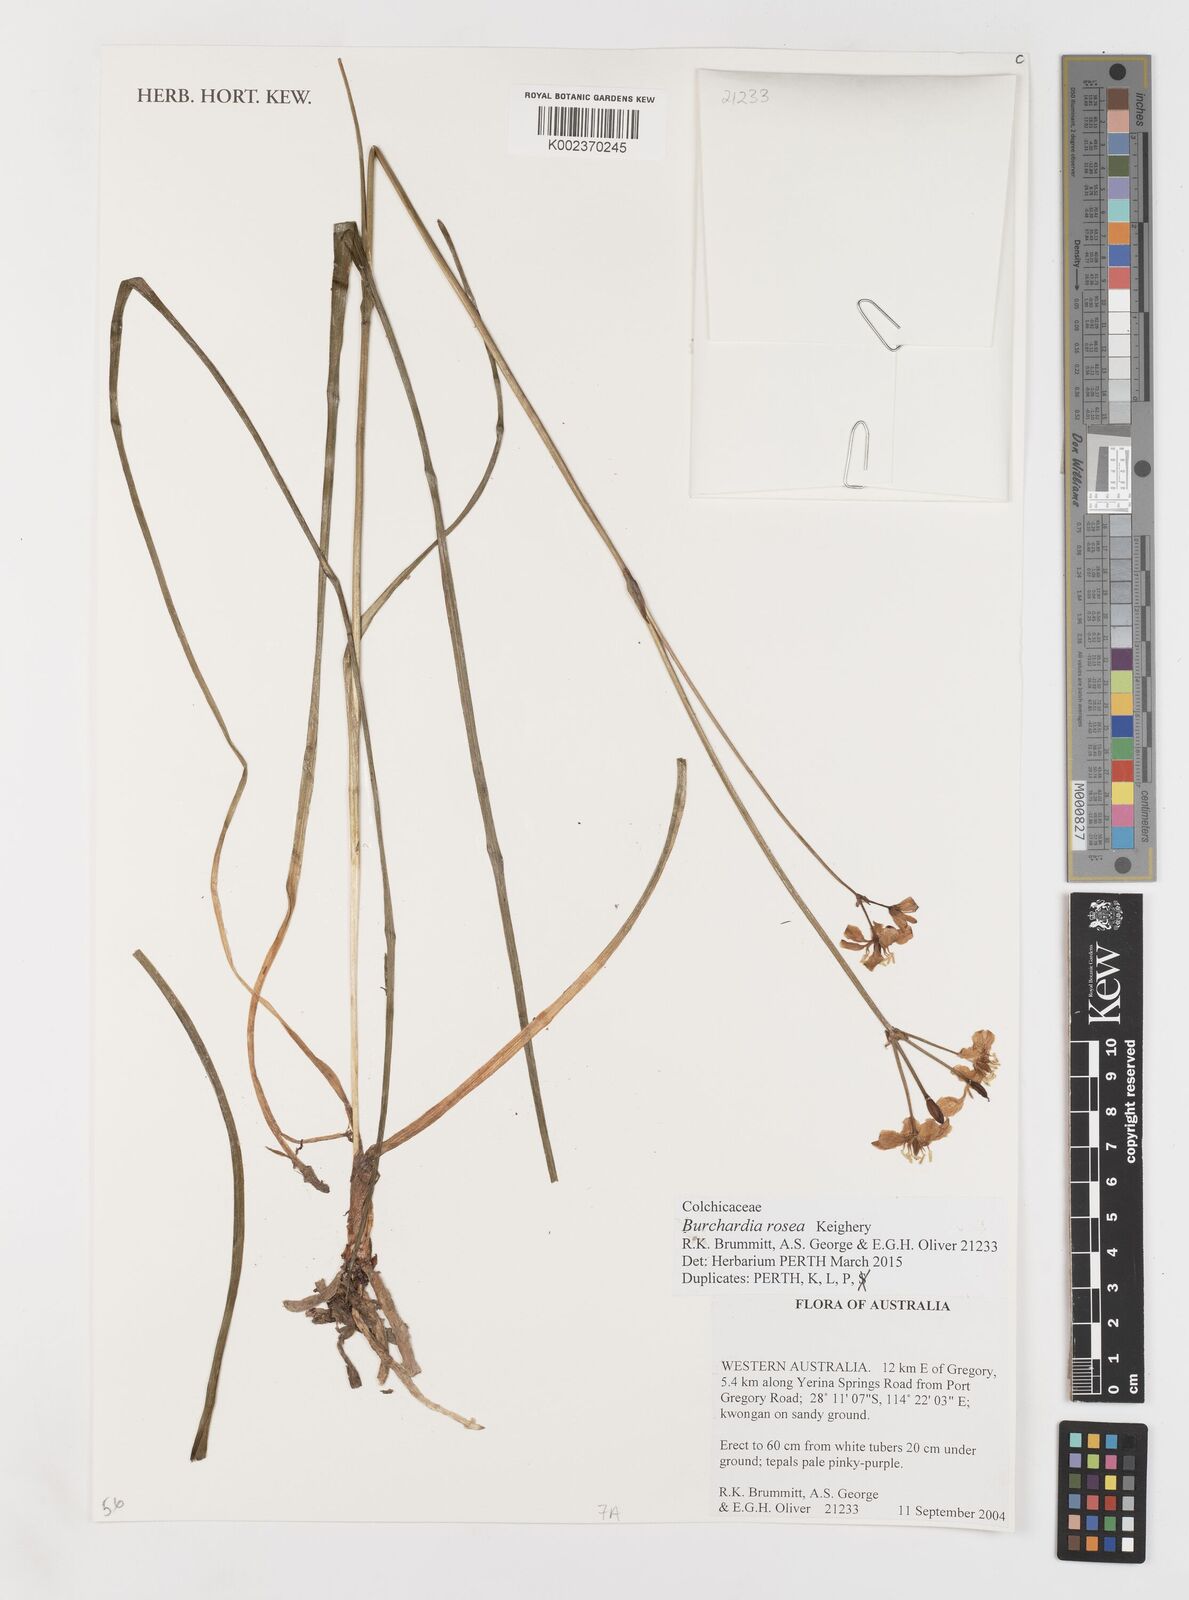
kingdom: Plantae
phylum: Tracheophyta
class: Liliopsida
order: Liliales
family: Colchicaceae
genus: Burchardia
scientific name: Burchardia rosea
